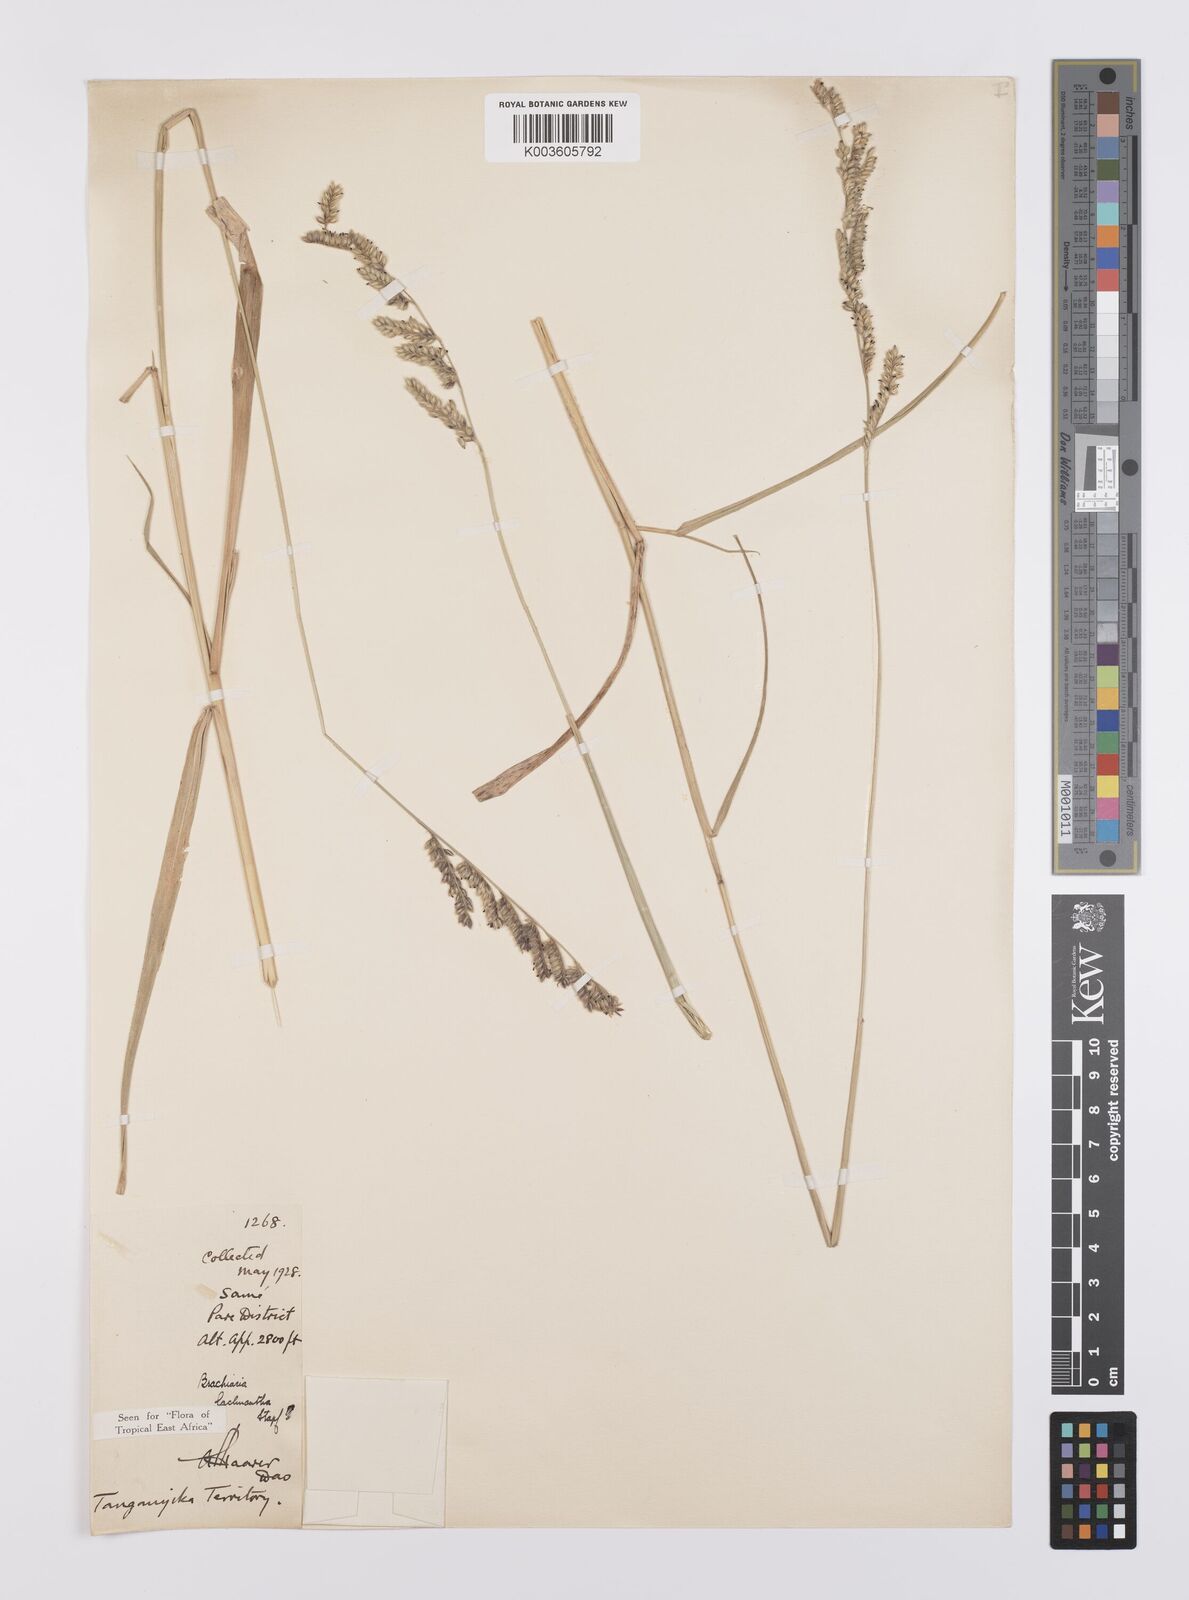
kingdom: Plantae
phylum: Tracheophyta
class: Liliopsida
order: Poales
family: Poaceae
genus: Urochloa
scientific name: Urochloa lachnantha
